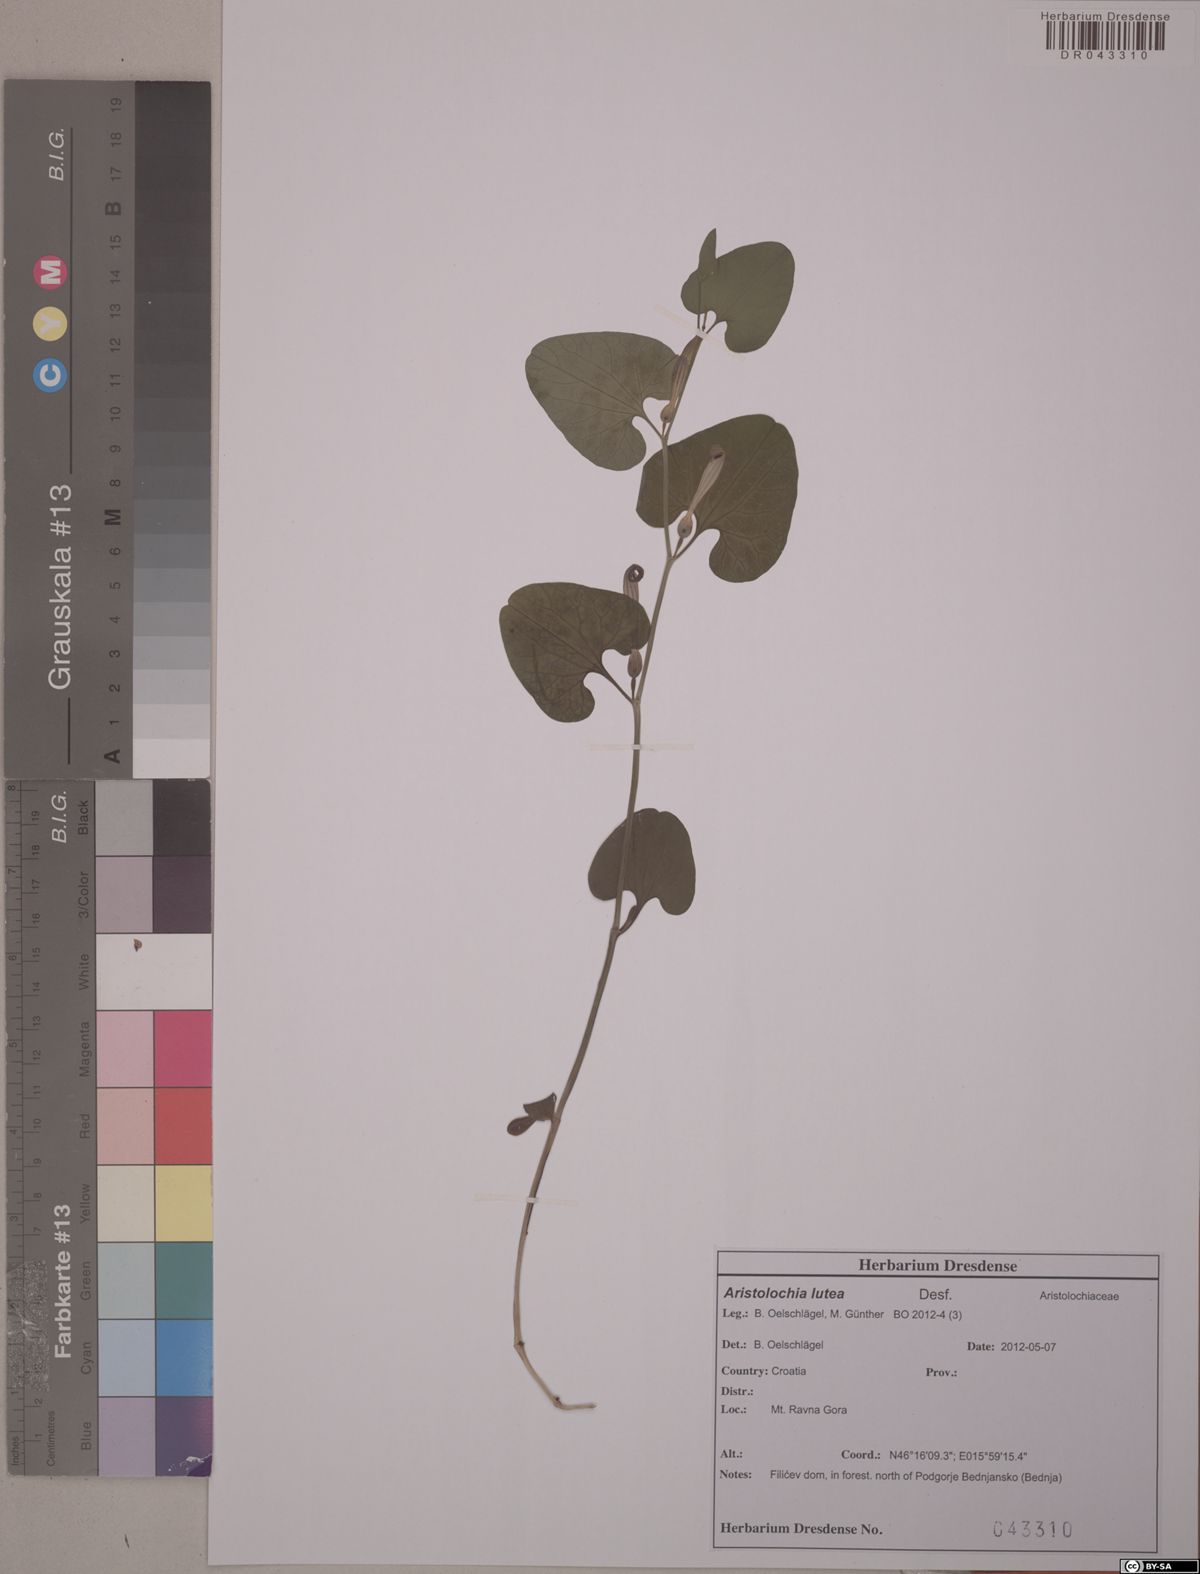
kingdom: Plantae
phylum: Tracheophyta
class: Magnoliopsida
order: Piperales
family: Aristolochiaceae
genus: Aristolochia
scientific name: Aristolochia lutea
